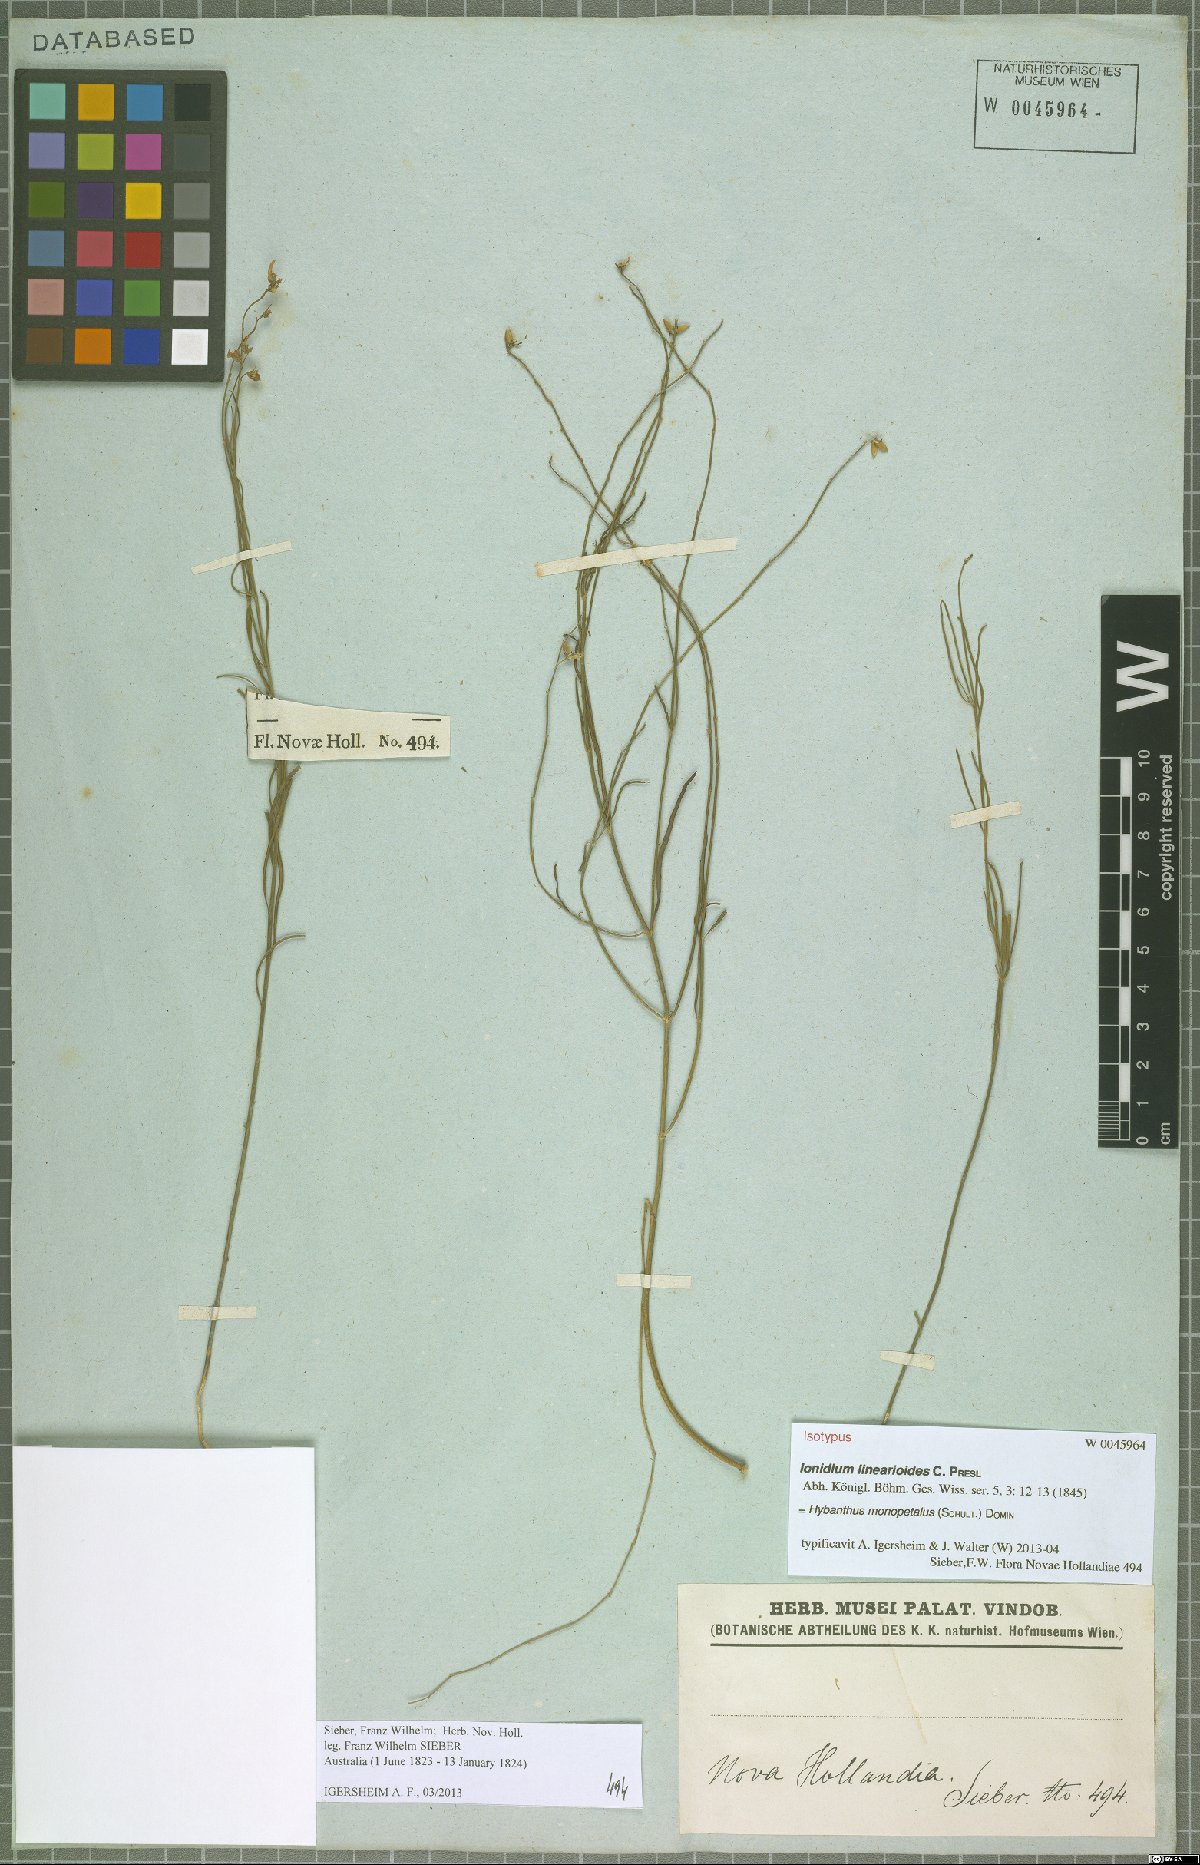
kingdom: Plantae
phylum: Tracheophyta
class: Magnoliopsida
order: Malpighiales
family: Violaceae
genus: Pigea
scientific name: Pigea monopetala
